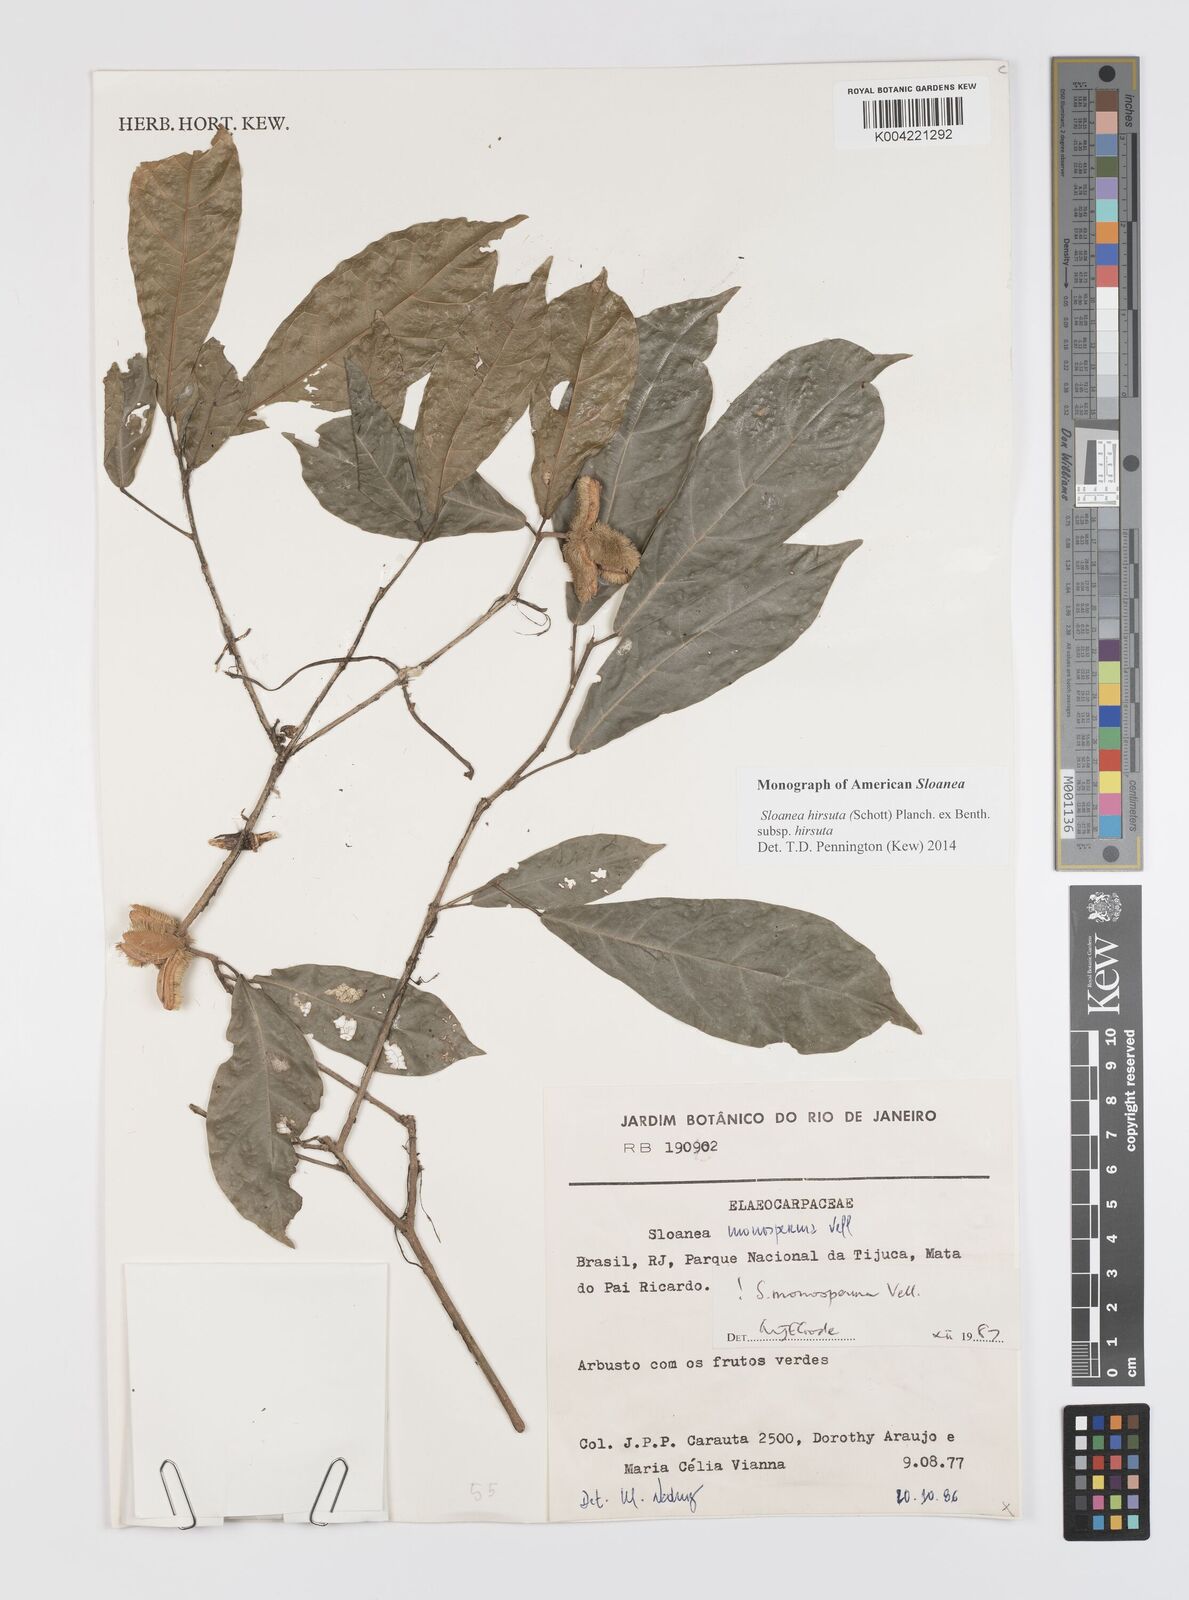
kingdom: Plantae
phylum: Tracheophyta
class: Magnoliopsida
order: Oxalidales
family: Elaeocarpaceae
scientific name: Elaeocarpaceae
